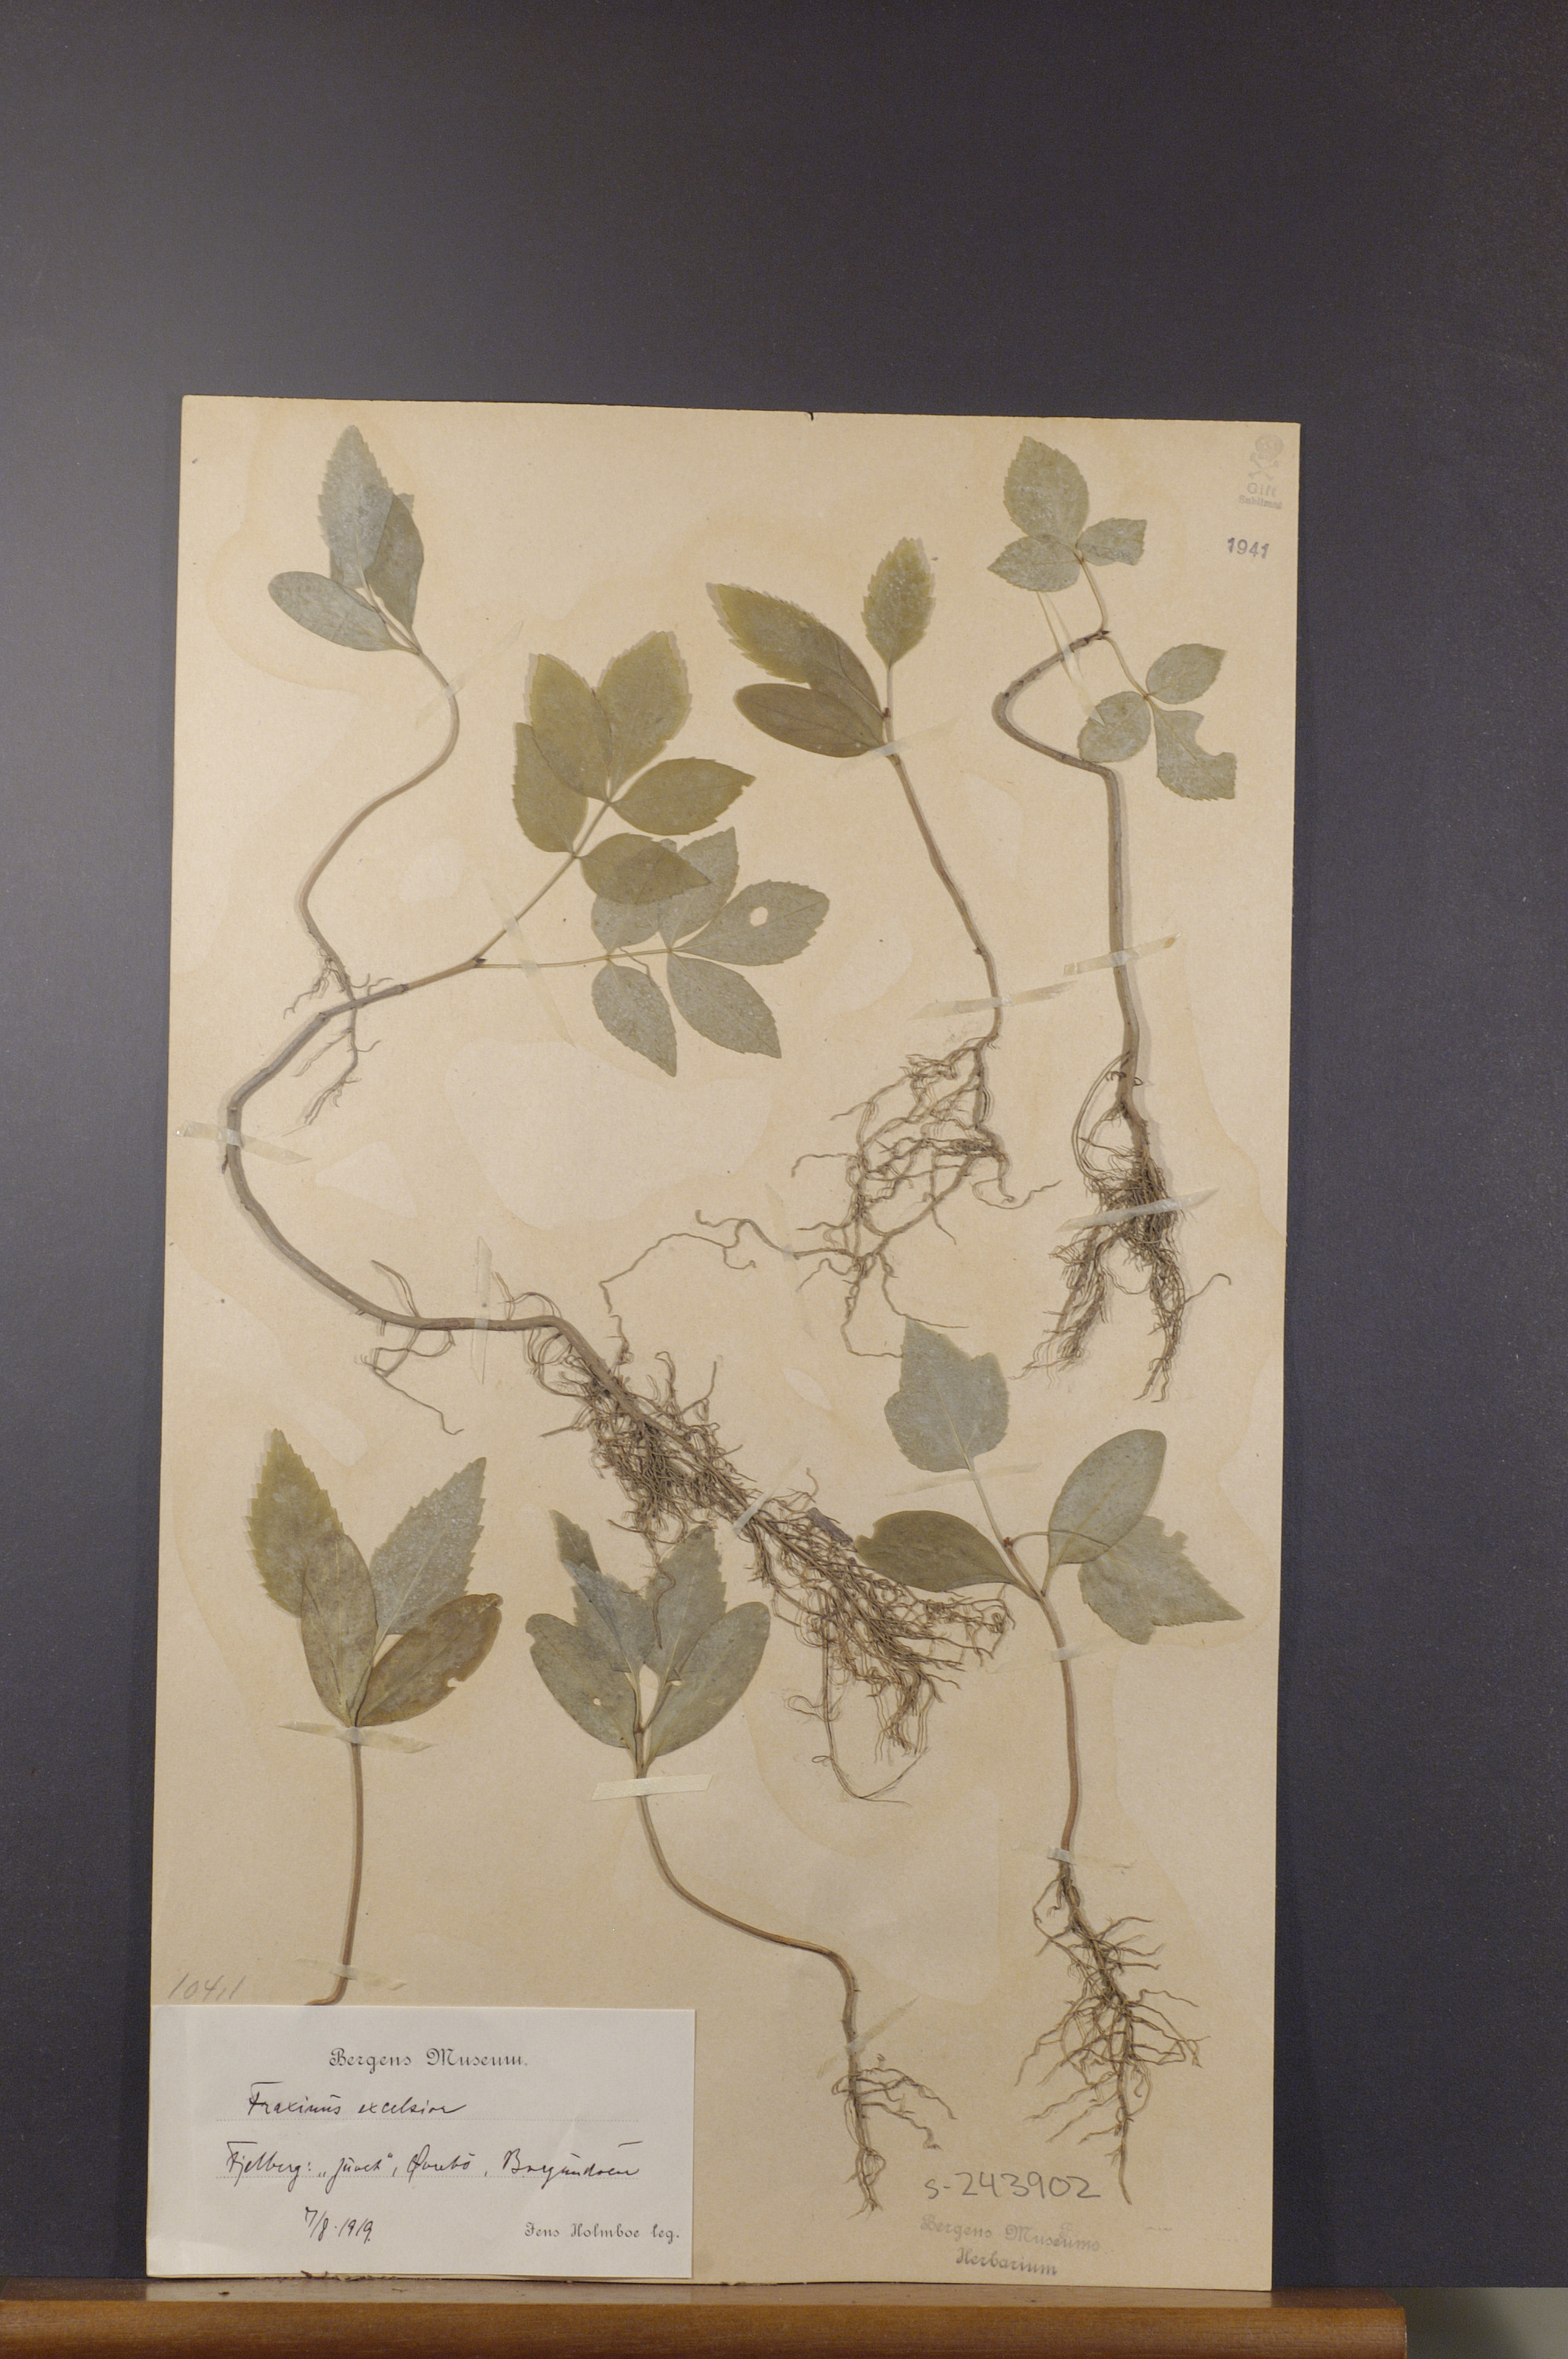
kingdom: Plantae
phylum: Tracheophyta
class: Magnoliopsida
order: Lamiales
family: Oleaceae
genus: Fraxinus
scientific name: Fraxinus excelsior
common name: European ash
